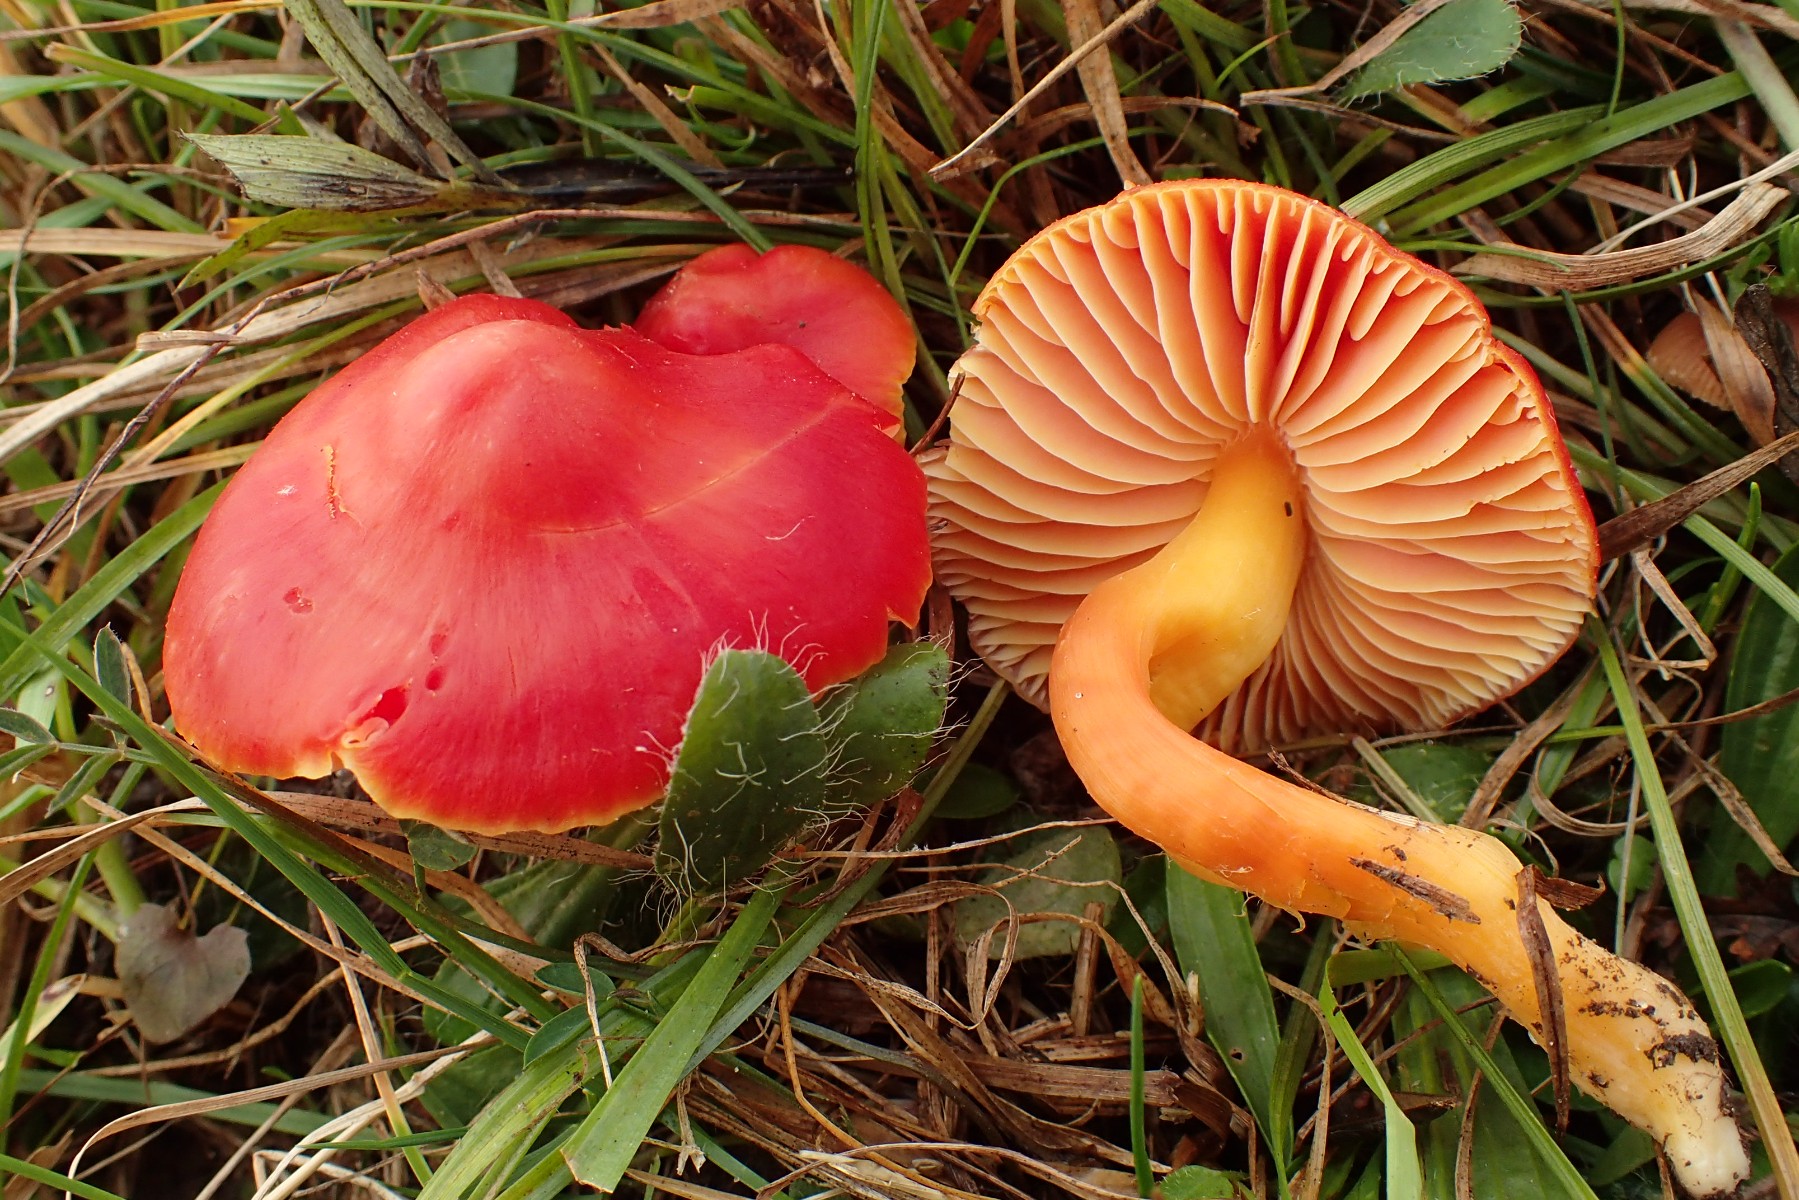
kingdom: Fungi
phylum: Basidiomycota
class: Agaricomycetes
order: Agaricales
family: Hygrophoraceae
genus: Hygrocybe
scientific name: Hygrocybe splendidissima
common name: knaldrød vokshat
